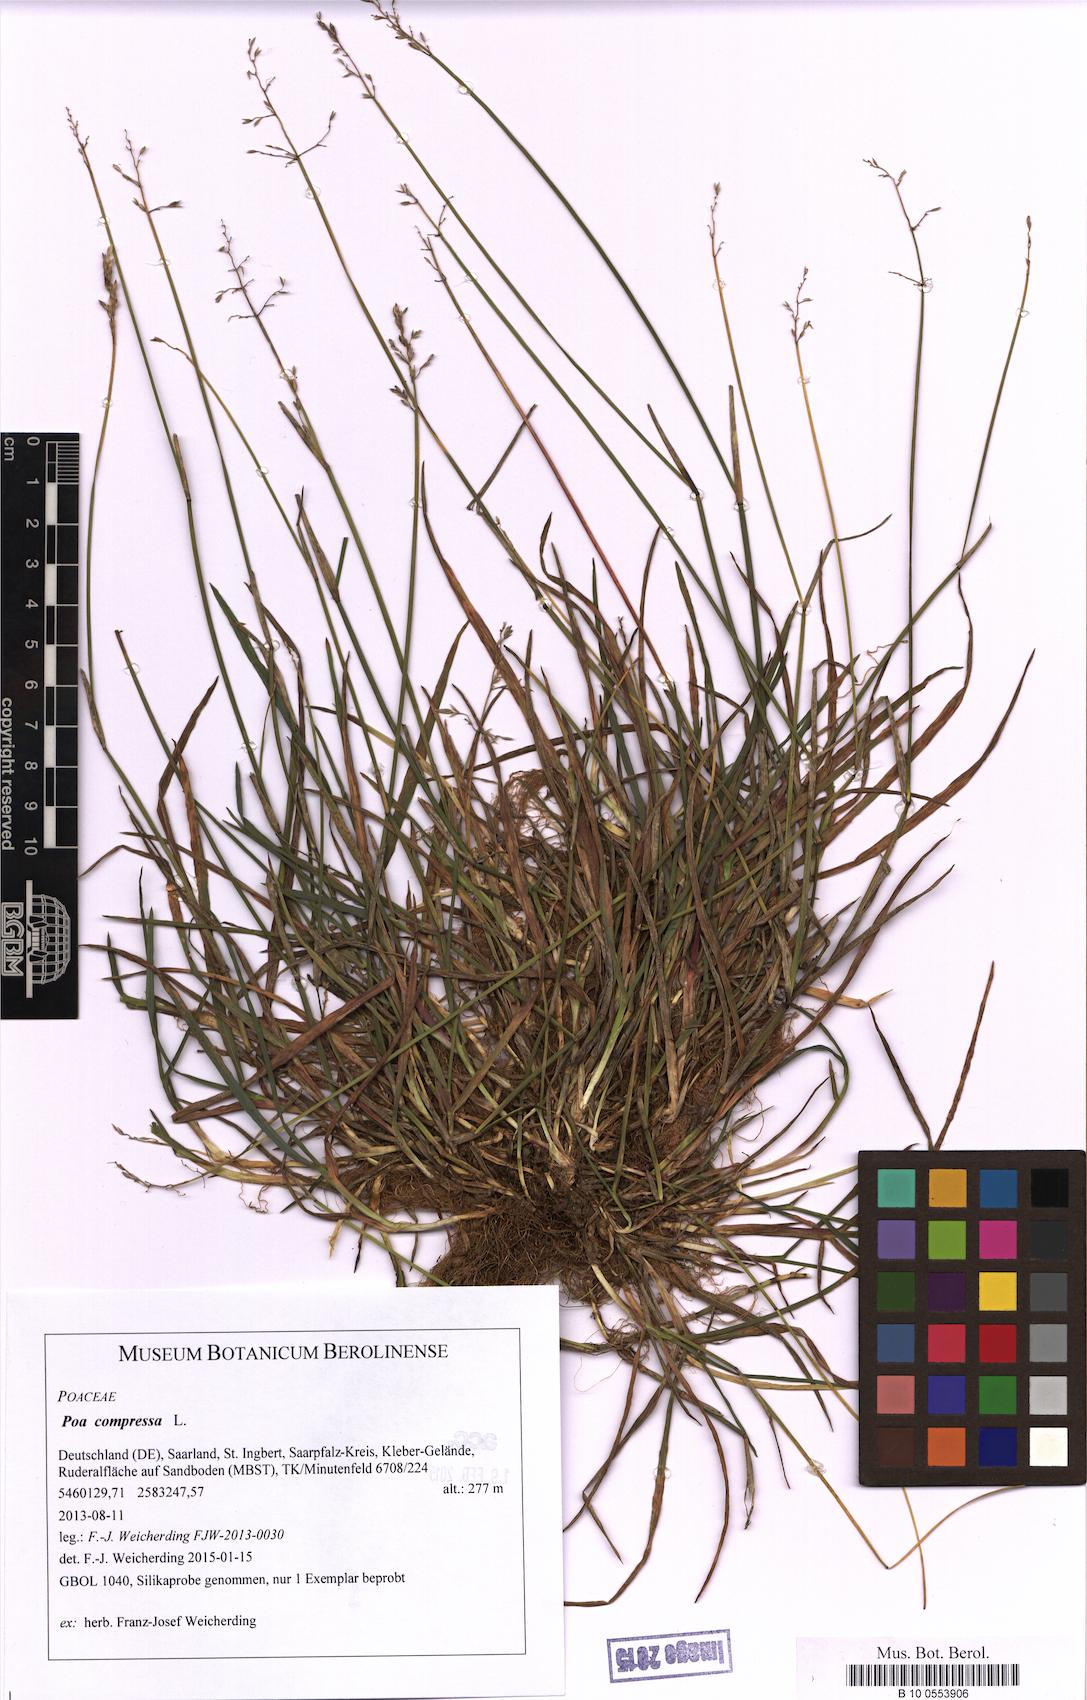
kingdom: Plantae
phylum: Tracheophyta
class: Liliopsida
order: Poales
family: Poaceae
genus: Poa
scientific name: Poa compressa
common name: Canada bluegrass
